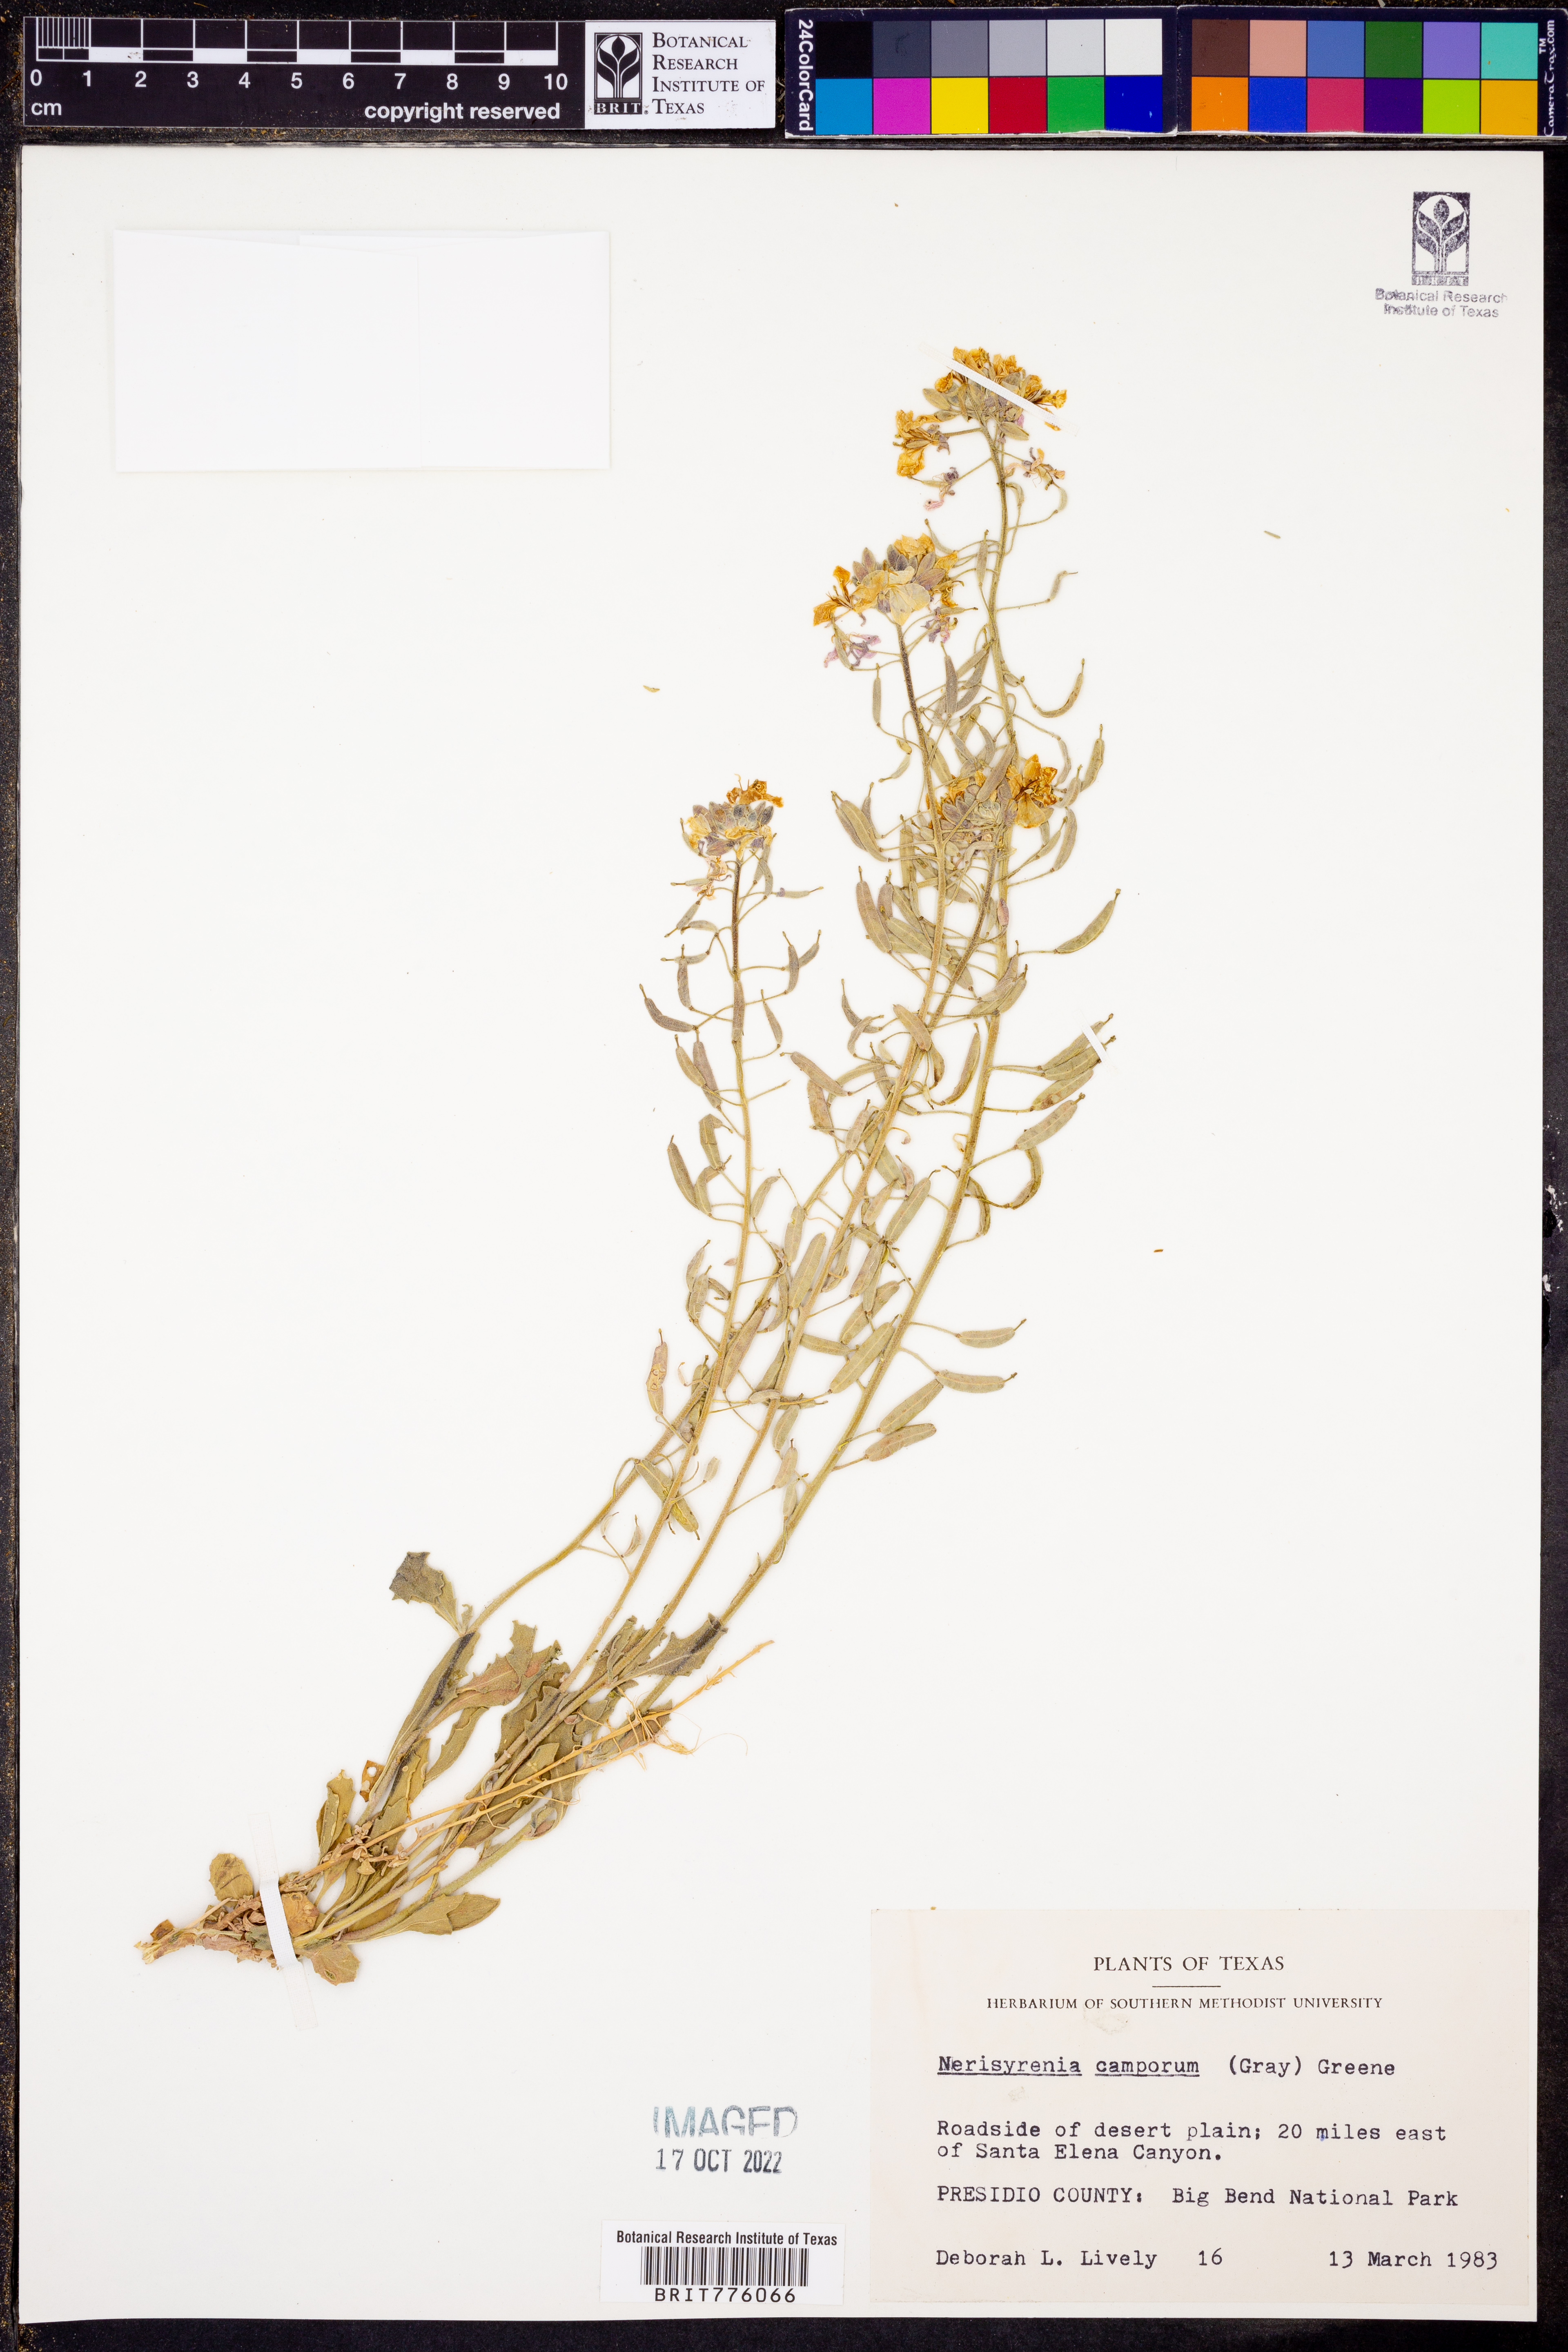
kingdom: Plantae
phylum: Tracheophyta
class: Magnoliopsida
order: Brassicales
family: Brassicaceae
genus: Nerisyrenia
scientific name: Nerisyrenia camporum
